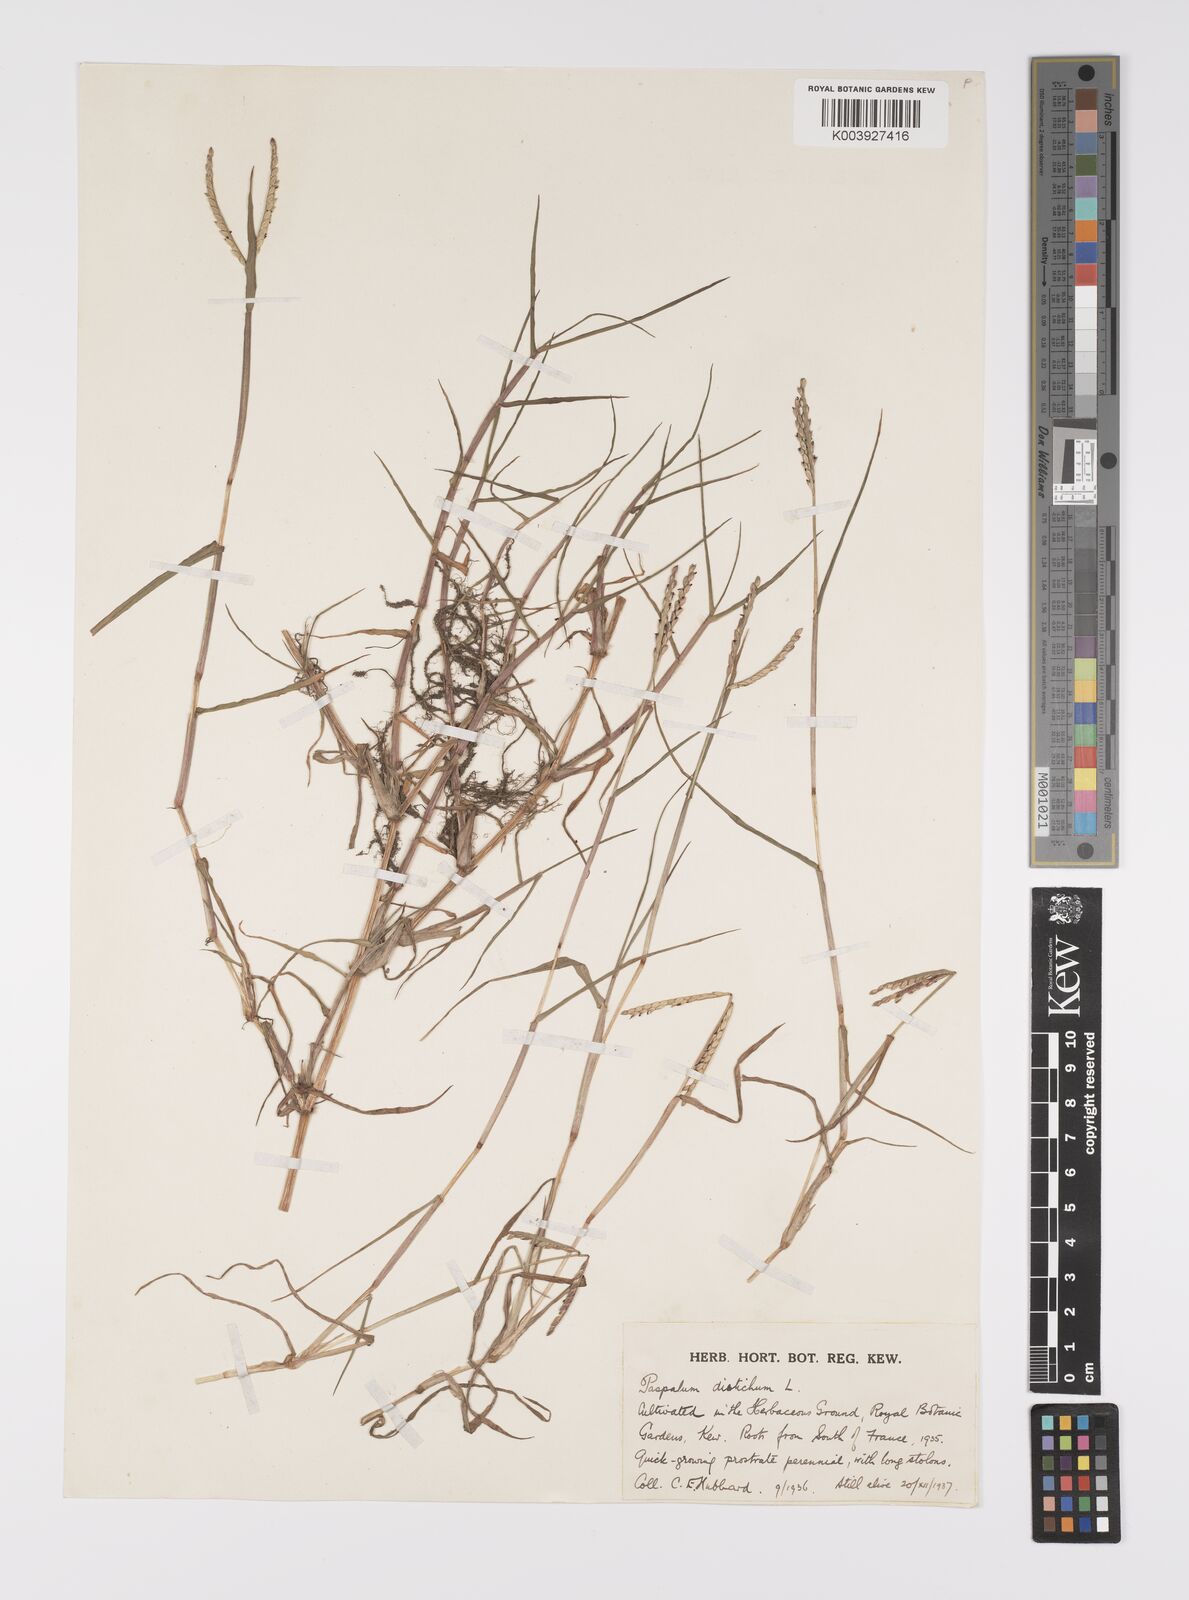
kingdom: Plantae
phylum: Tracheophyta
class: Liliopsida
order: Poales
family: Poaceae
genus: Paspalum
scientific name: Paspalum distichum
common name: Knotgrass
